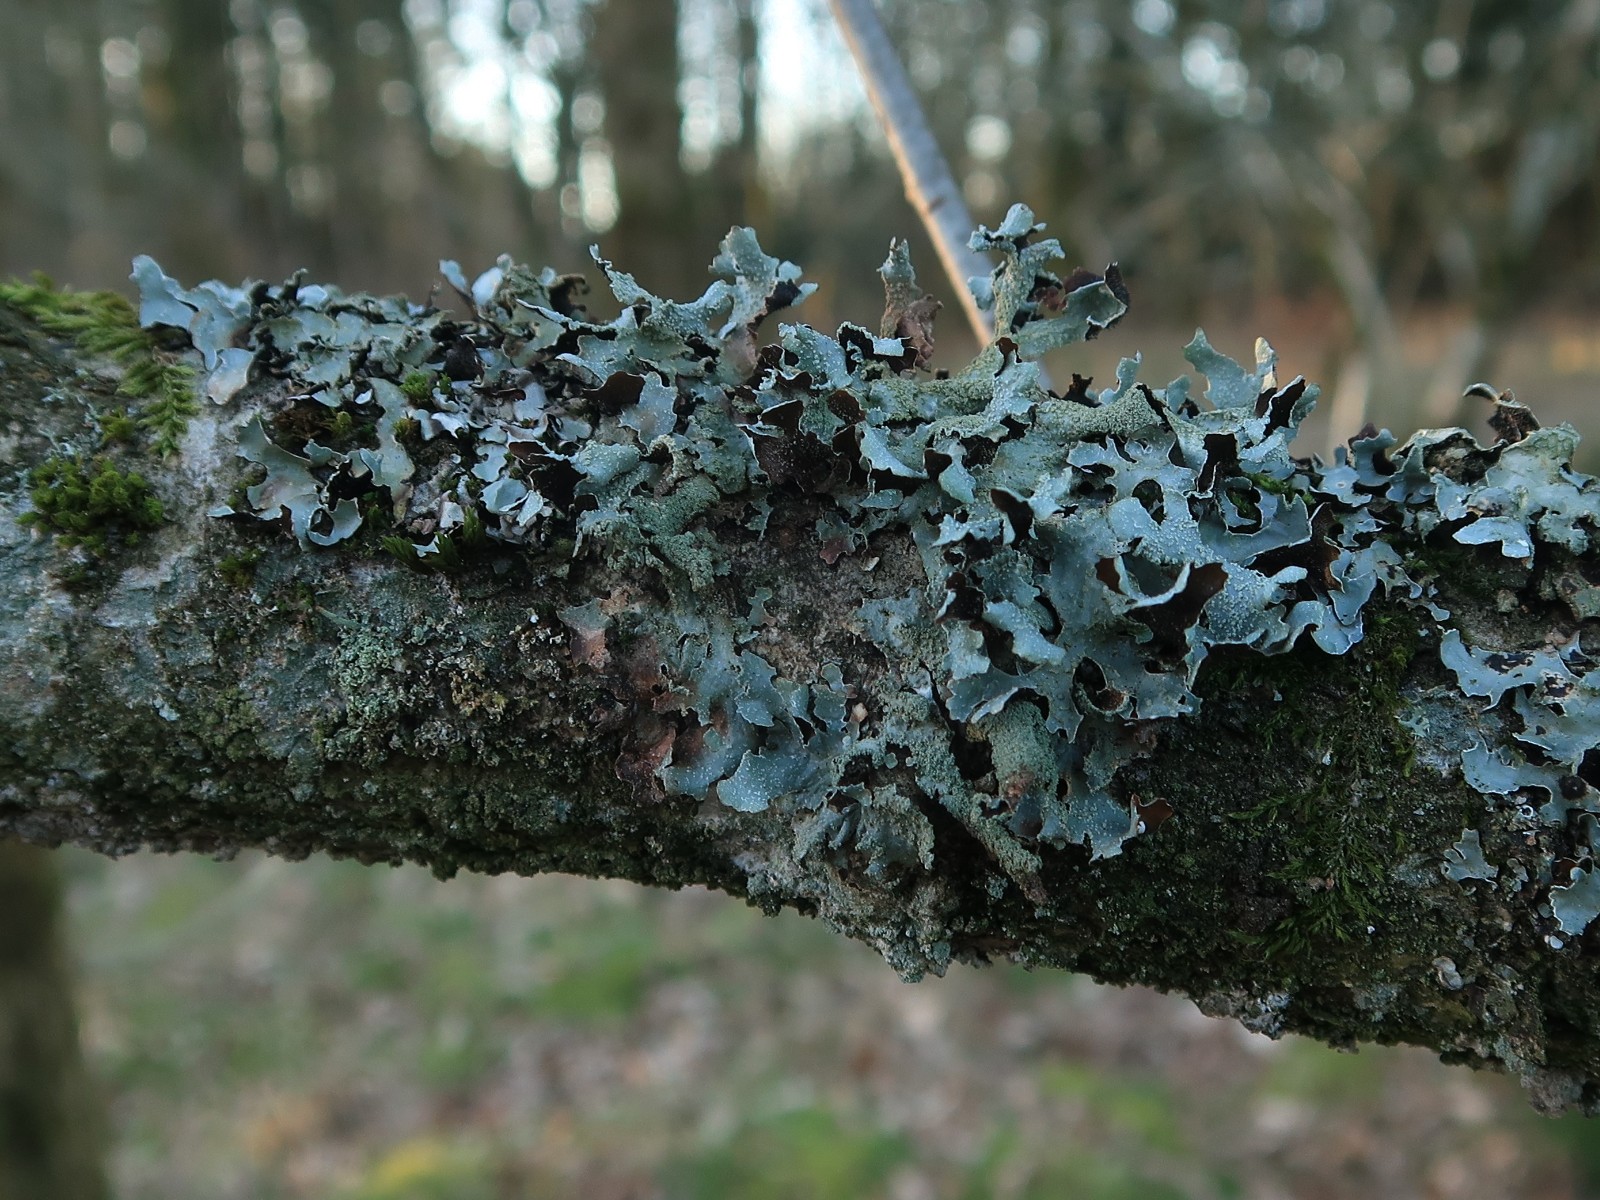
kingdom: Fungi
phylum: Ascomycota
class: Lecanoromycetes
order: Lecanorales
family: Parmeliaceae
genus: Parmelia
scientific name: Parmelia submontana
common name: langlobet skållav
